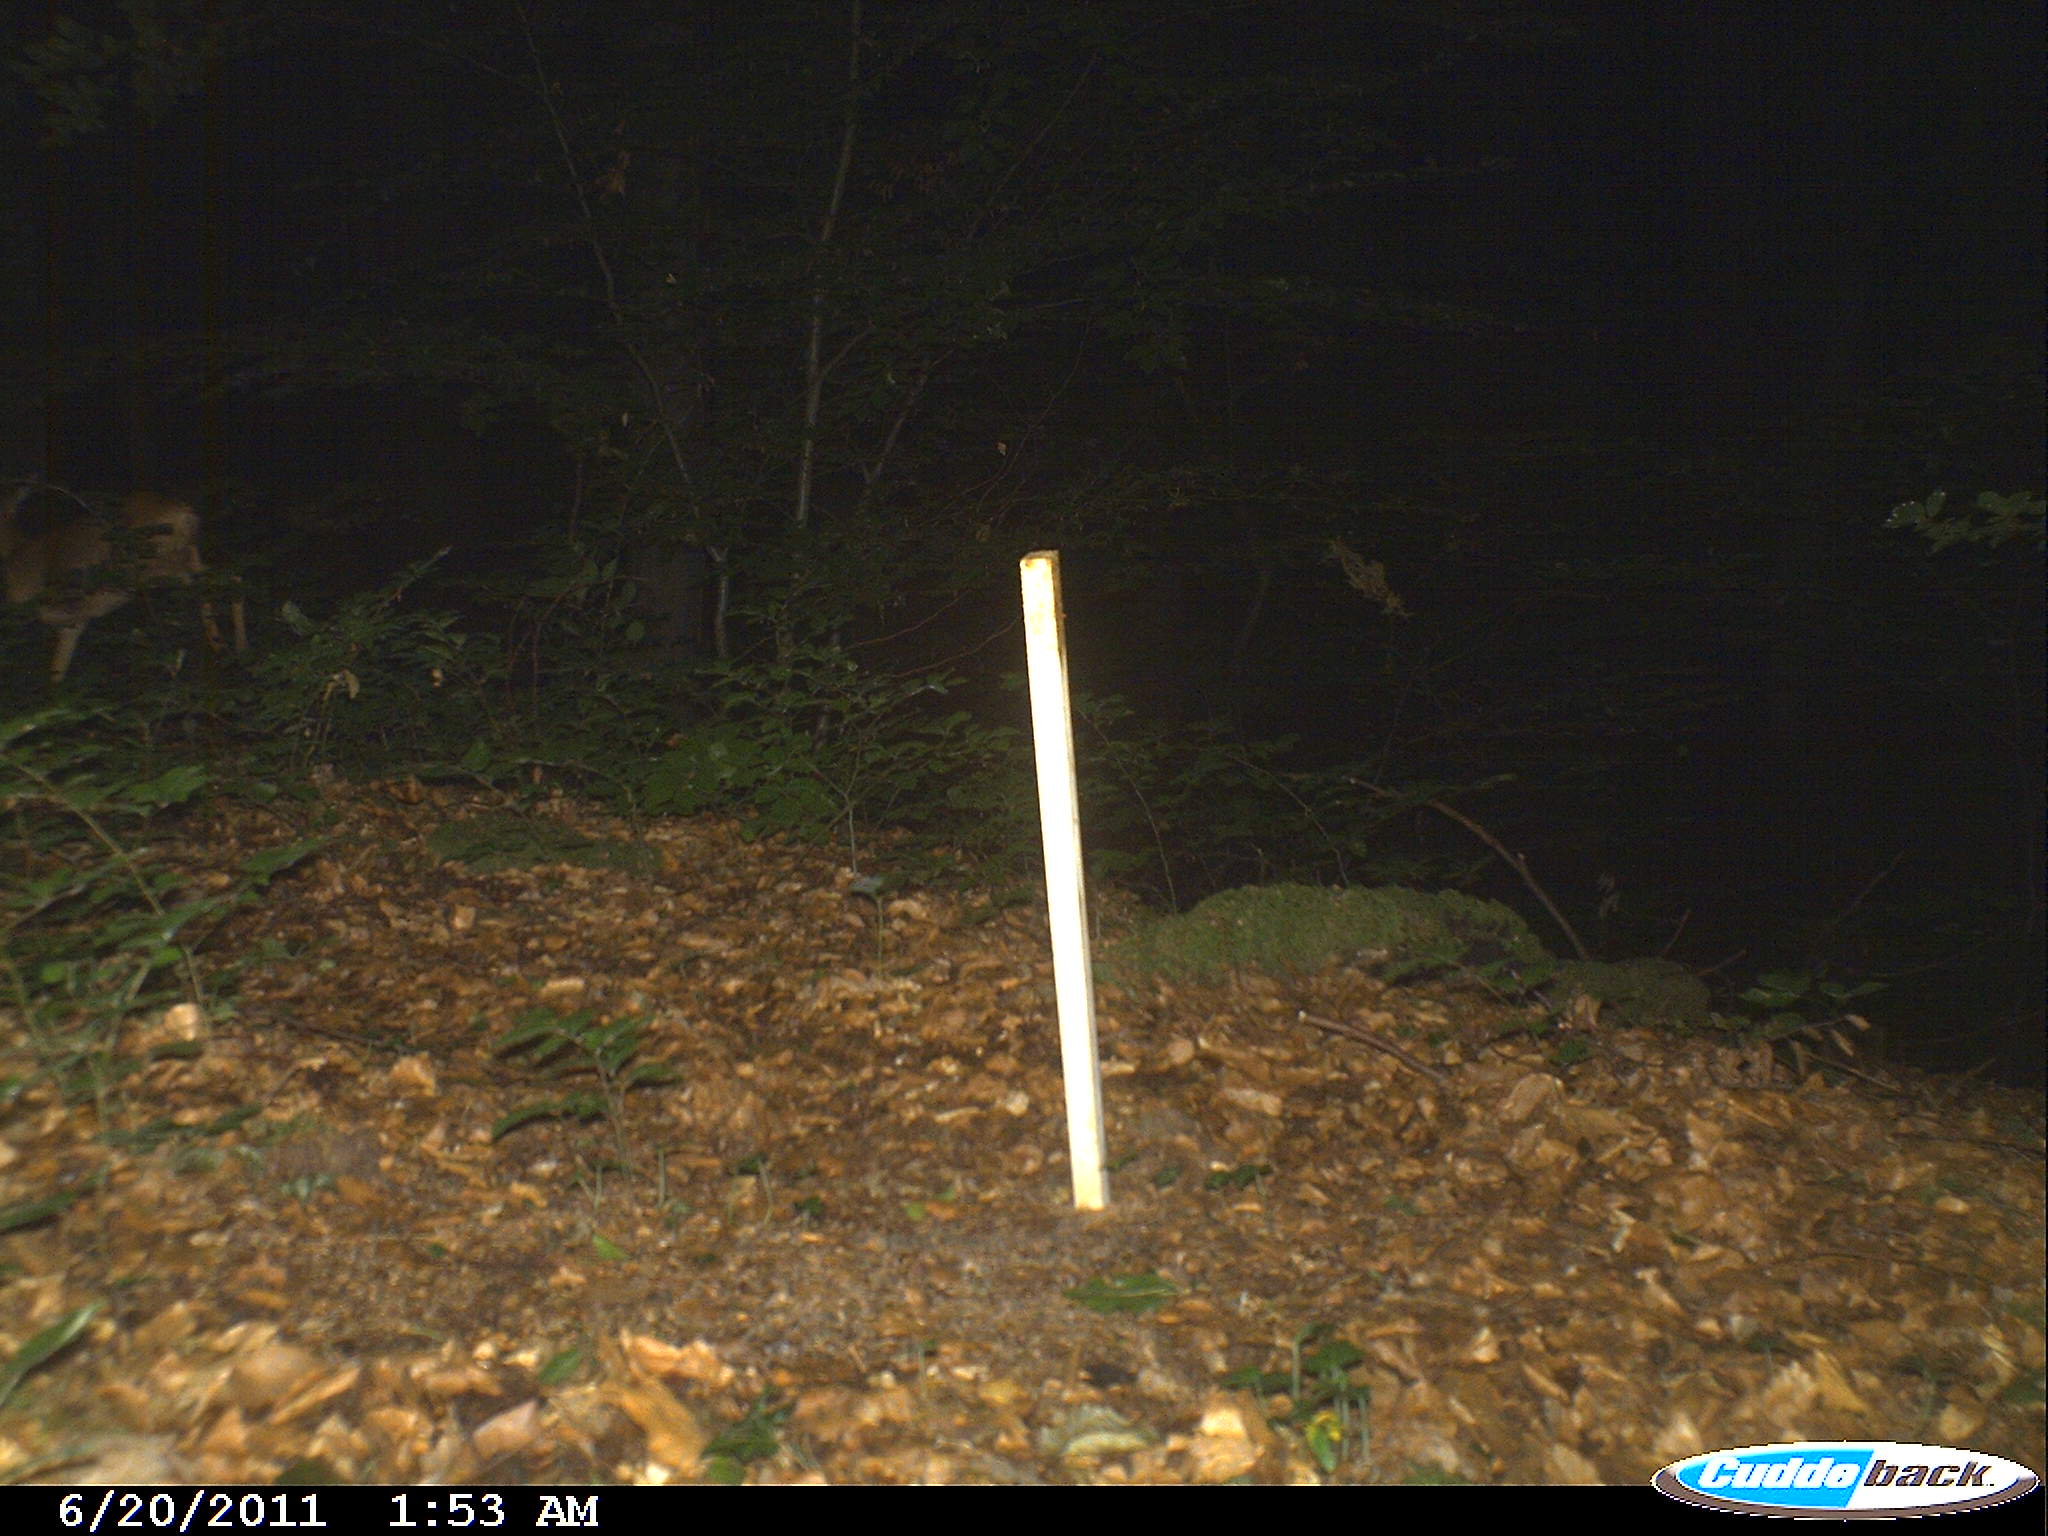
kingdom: Animalia
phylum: Chordata
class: Mammalia
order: Artiodactyla
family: Cervidae
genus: Capreolus
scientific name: Capreolus capreolus
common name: Western roe deer
